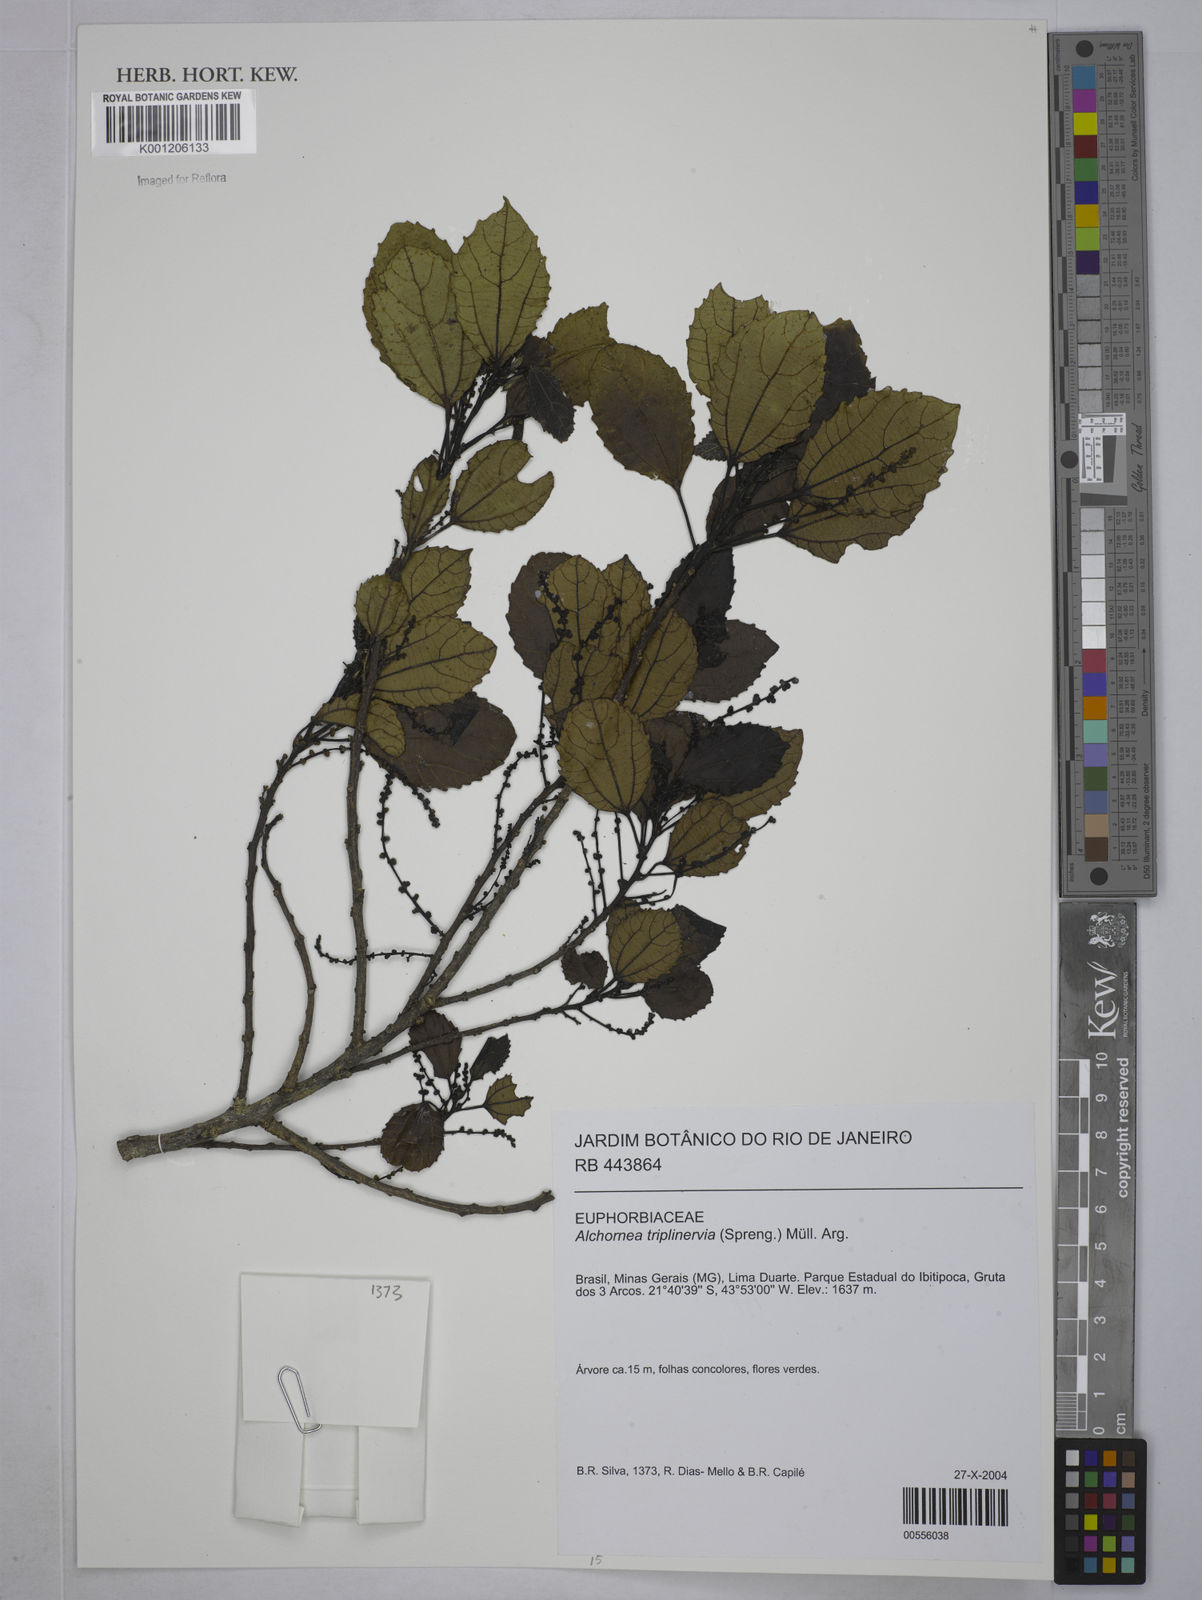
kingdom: Plantae
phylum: Tracheophyta
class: Magnoliopsida
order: Malpighiales
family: Euphorbiaceae
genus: Alchornea
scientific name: Alchornea
